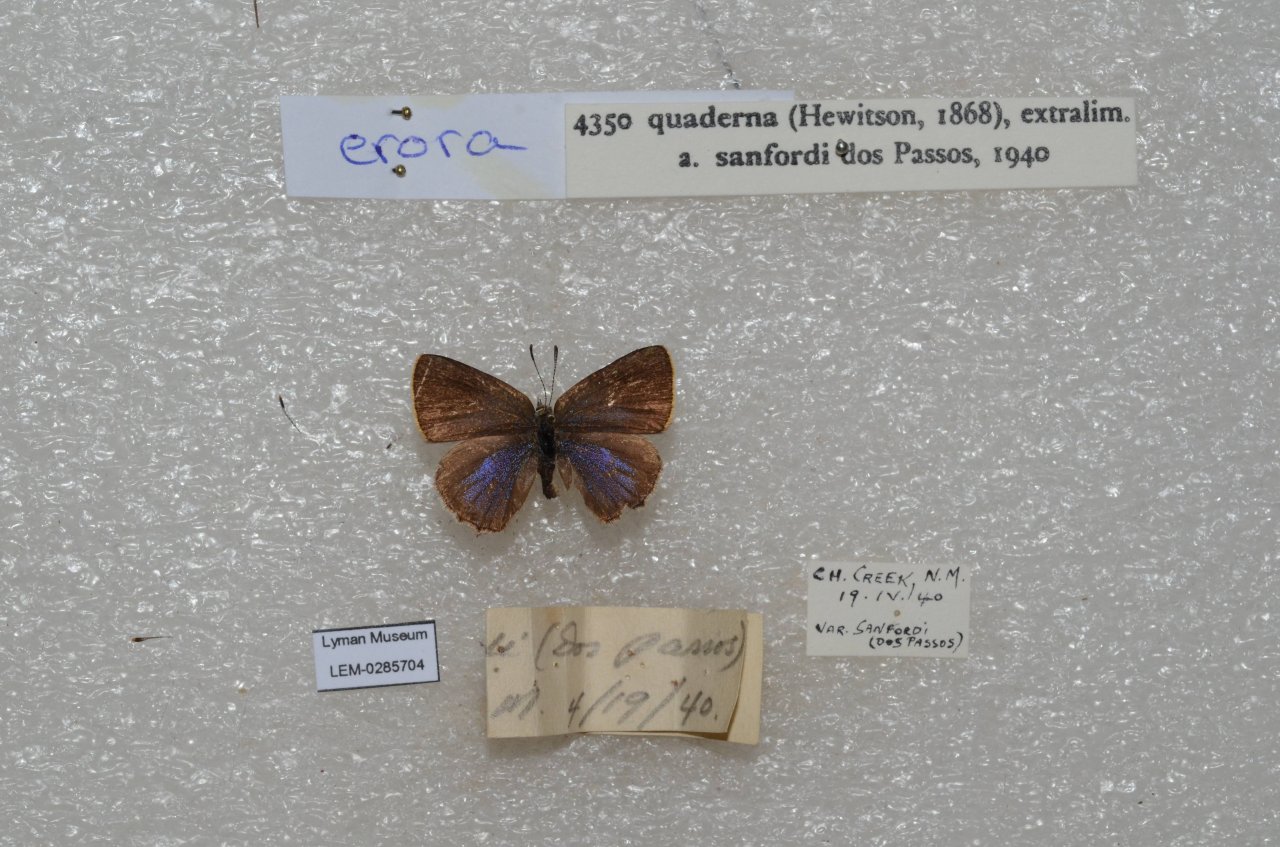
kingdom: Animalia
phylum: Arthropoda
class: Insecta
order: Lepidoptera
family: Lycaenidae
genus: Erora
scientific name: Erora quaderna
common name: Arizona Hairstreak
